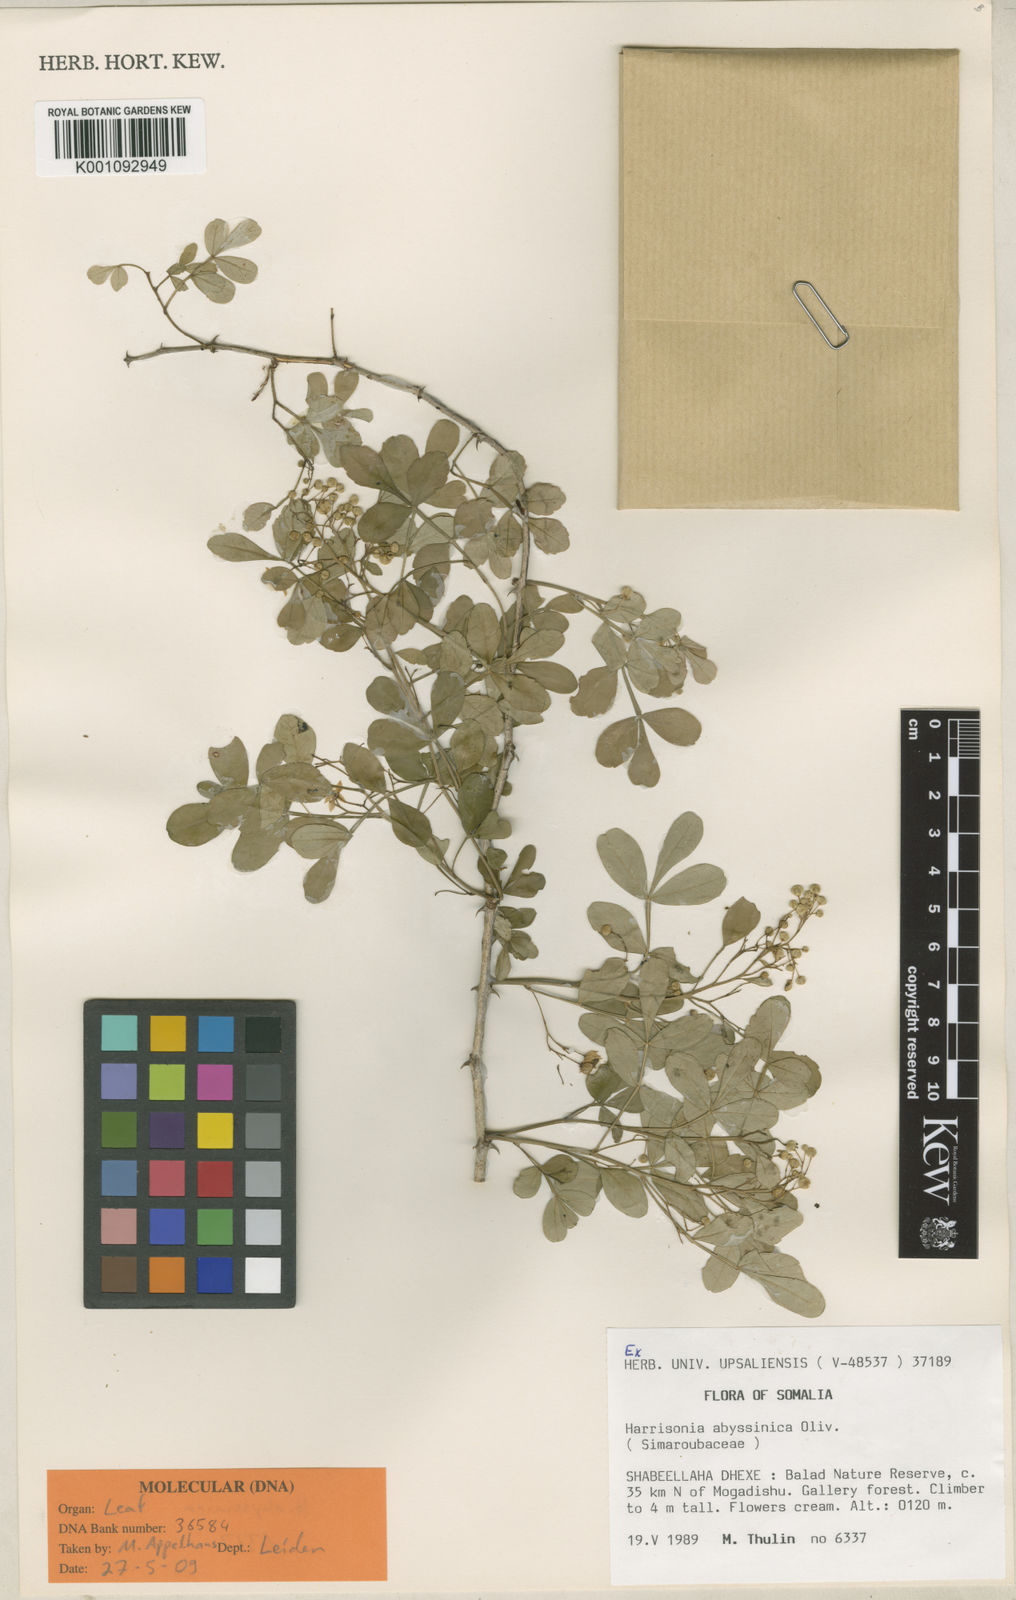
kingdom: Plantae
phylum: Tracheophyta
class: Magnoliopsida
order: Sapindales
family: Rutaceae
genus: Harrisonia
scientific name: Harrisonia abyssinica
